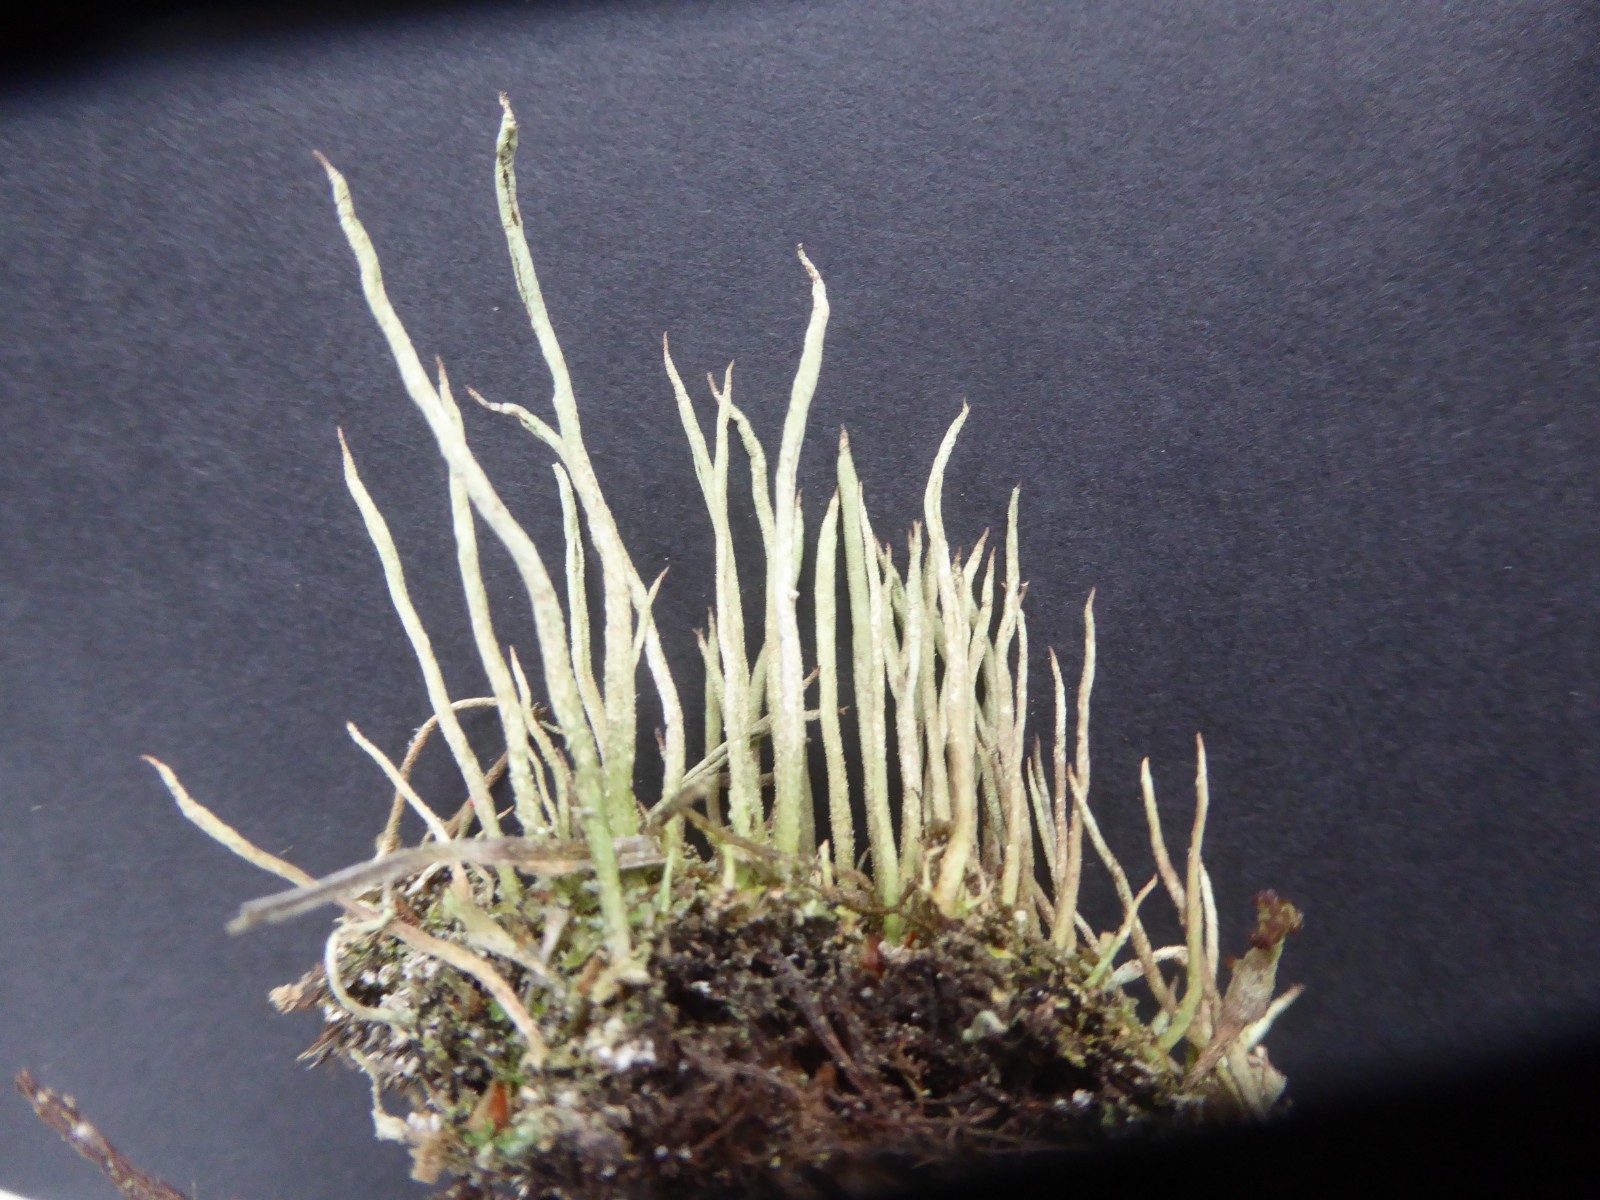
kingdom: Fungi
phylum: Ascomycota
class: Lecanoromycetes
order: Lecanorales
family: Cladoniaceae
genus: Cladonia
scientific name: Cladonia cornuta
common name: syl-bægerlav
